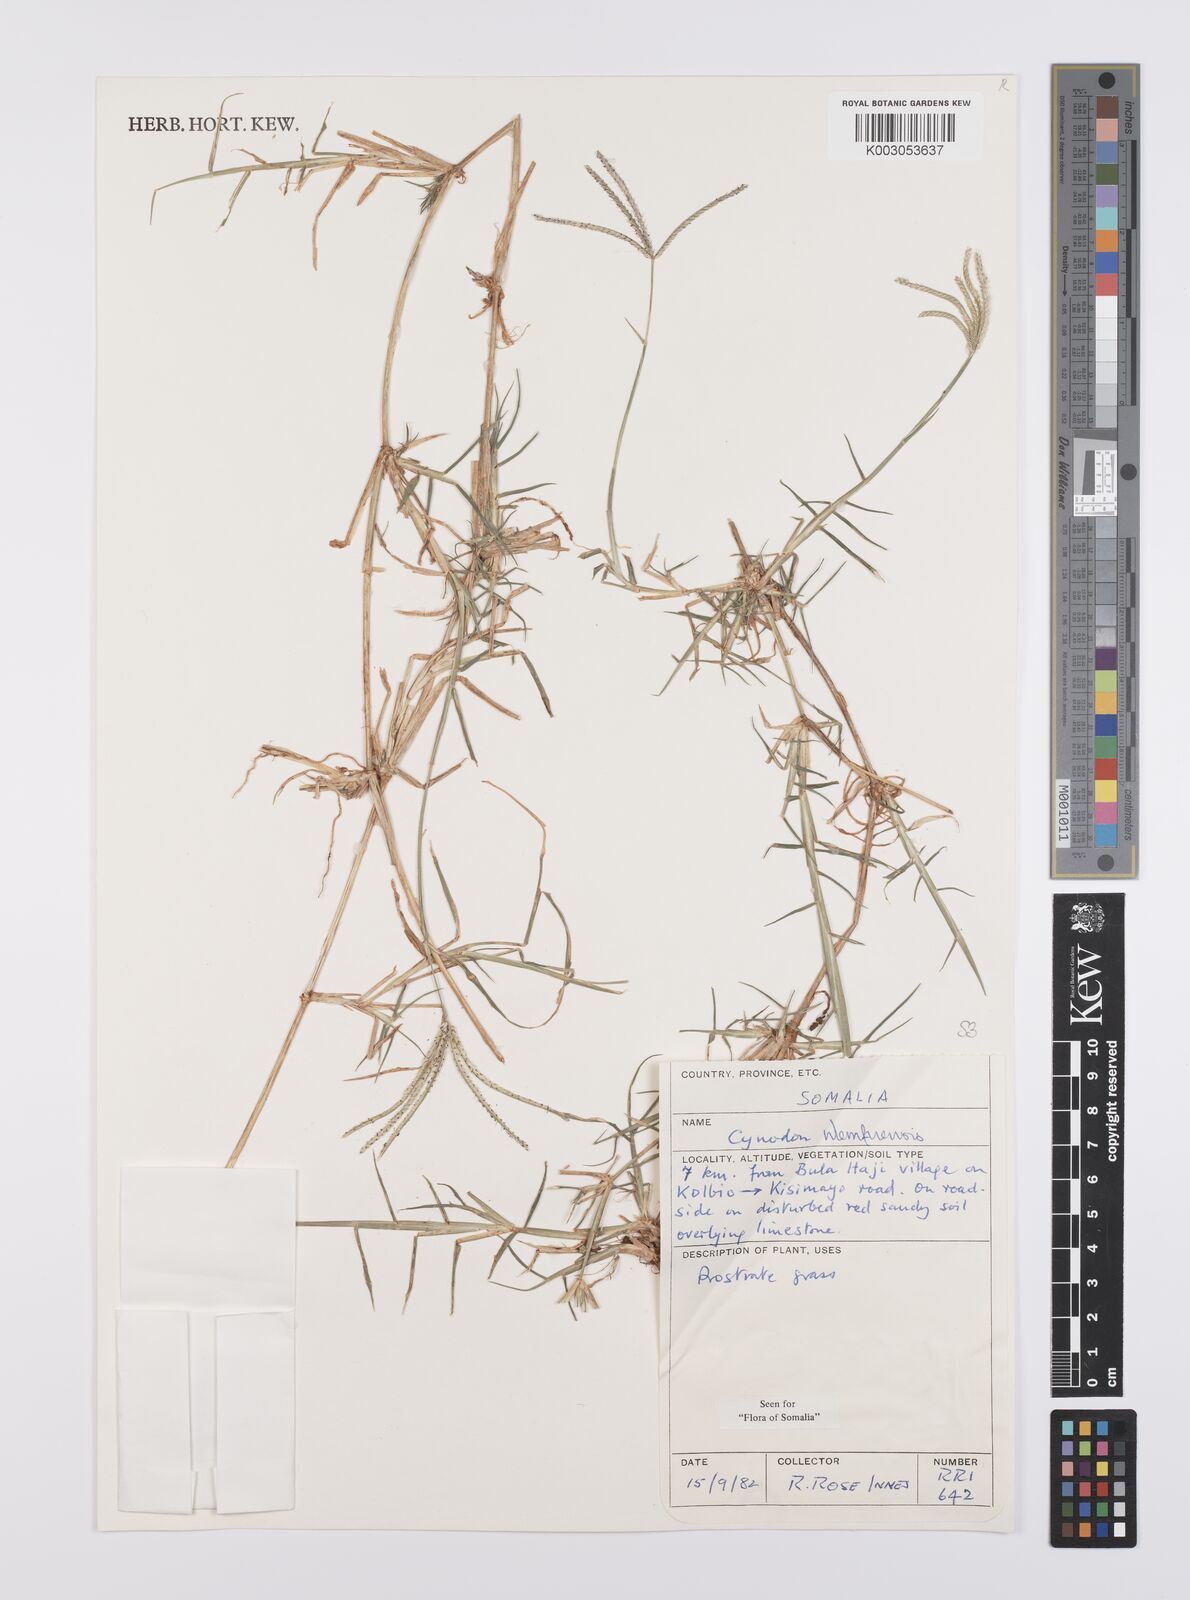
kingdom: Plantae
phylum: Tracheophyta
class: Liliopsida
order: Poales
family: Poaceae
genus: Cynodon
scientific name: Cynodon nlemfuensis
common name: African bermudagrass
